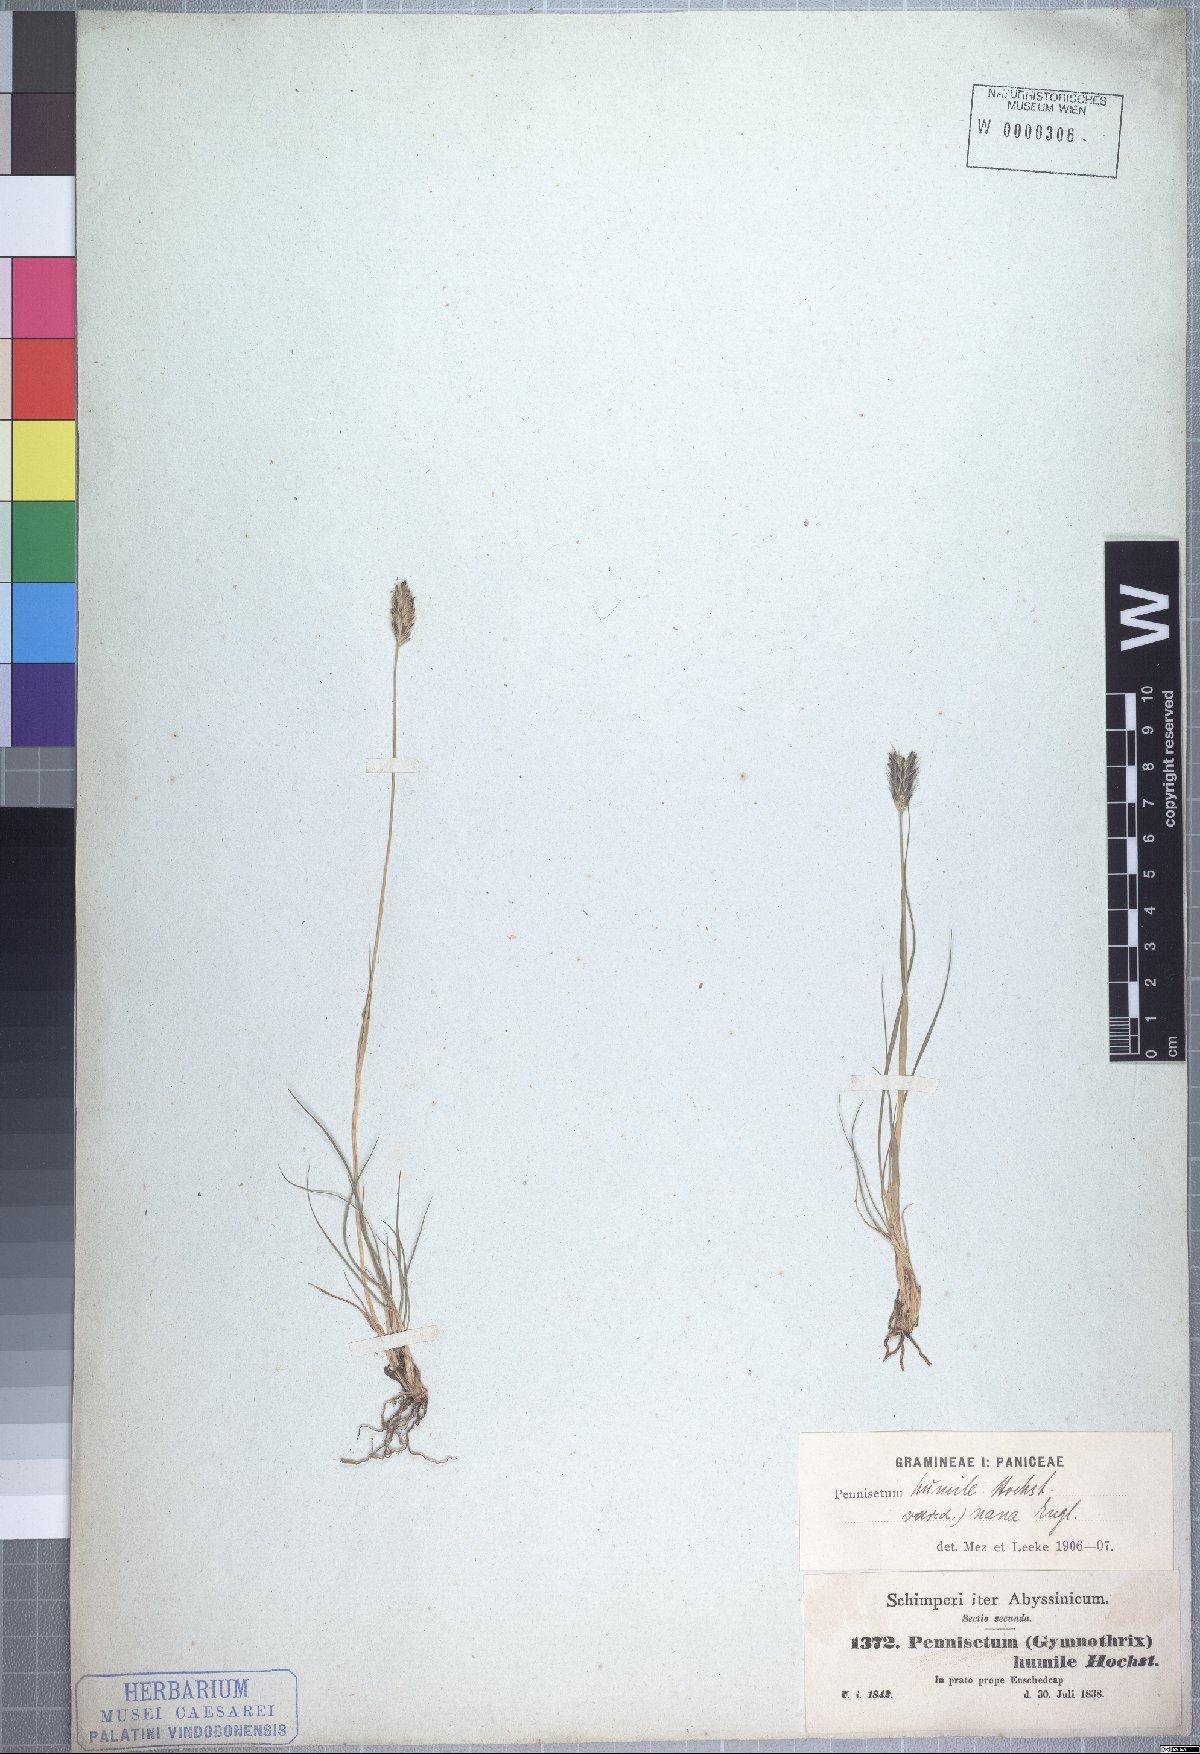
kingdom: Plantae
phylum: Tracheophyta
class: Liliopsida
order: Poales
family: Poaceae
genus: Cenchrus
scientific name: Cenchrus nanus
